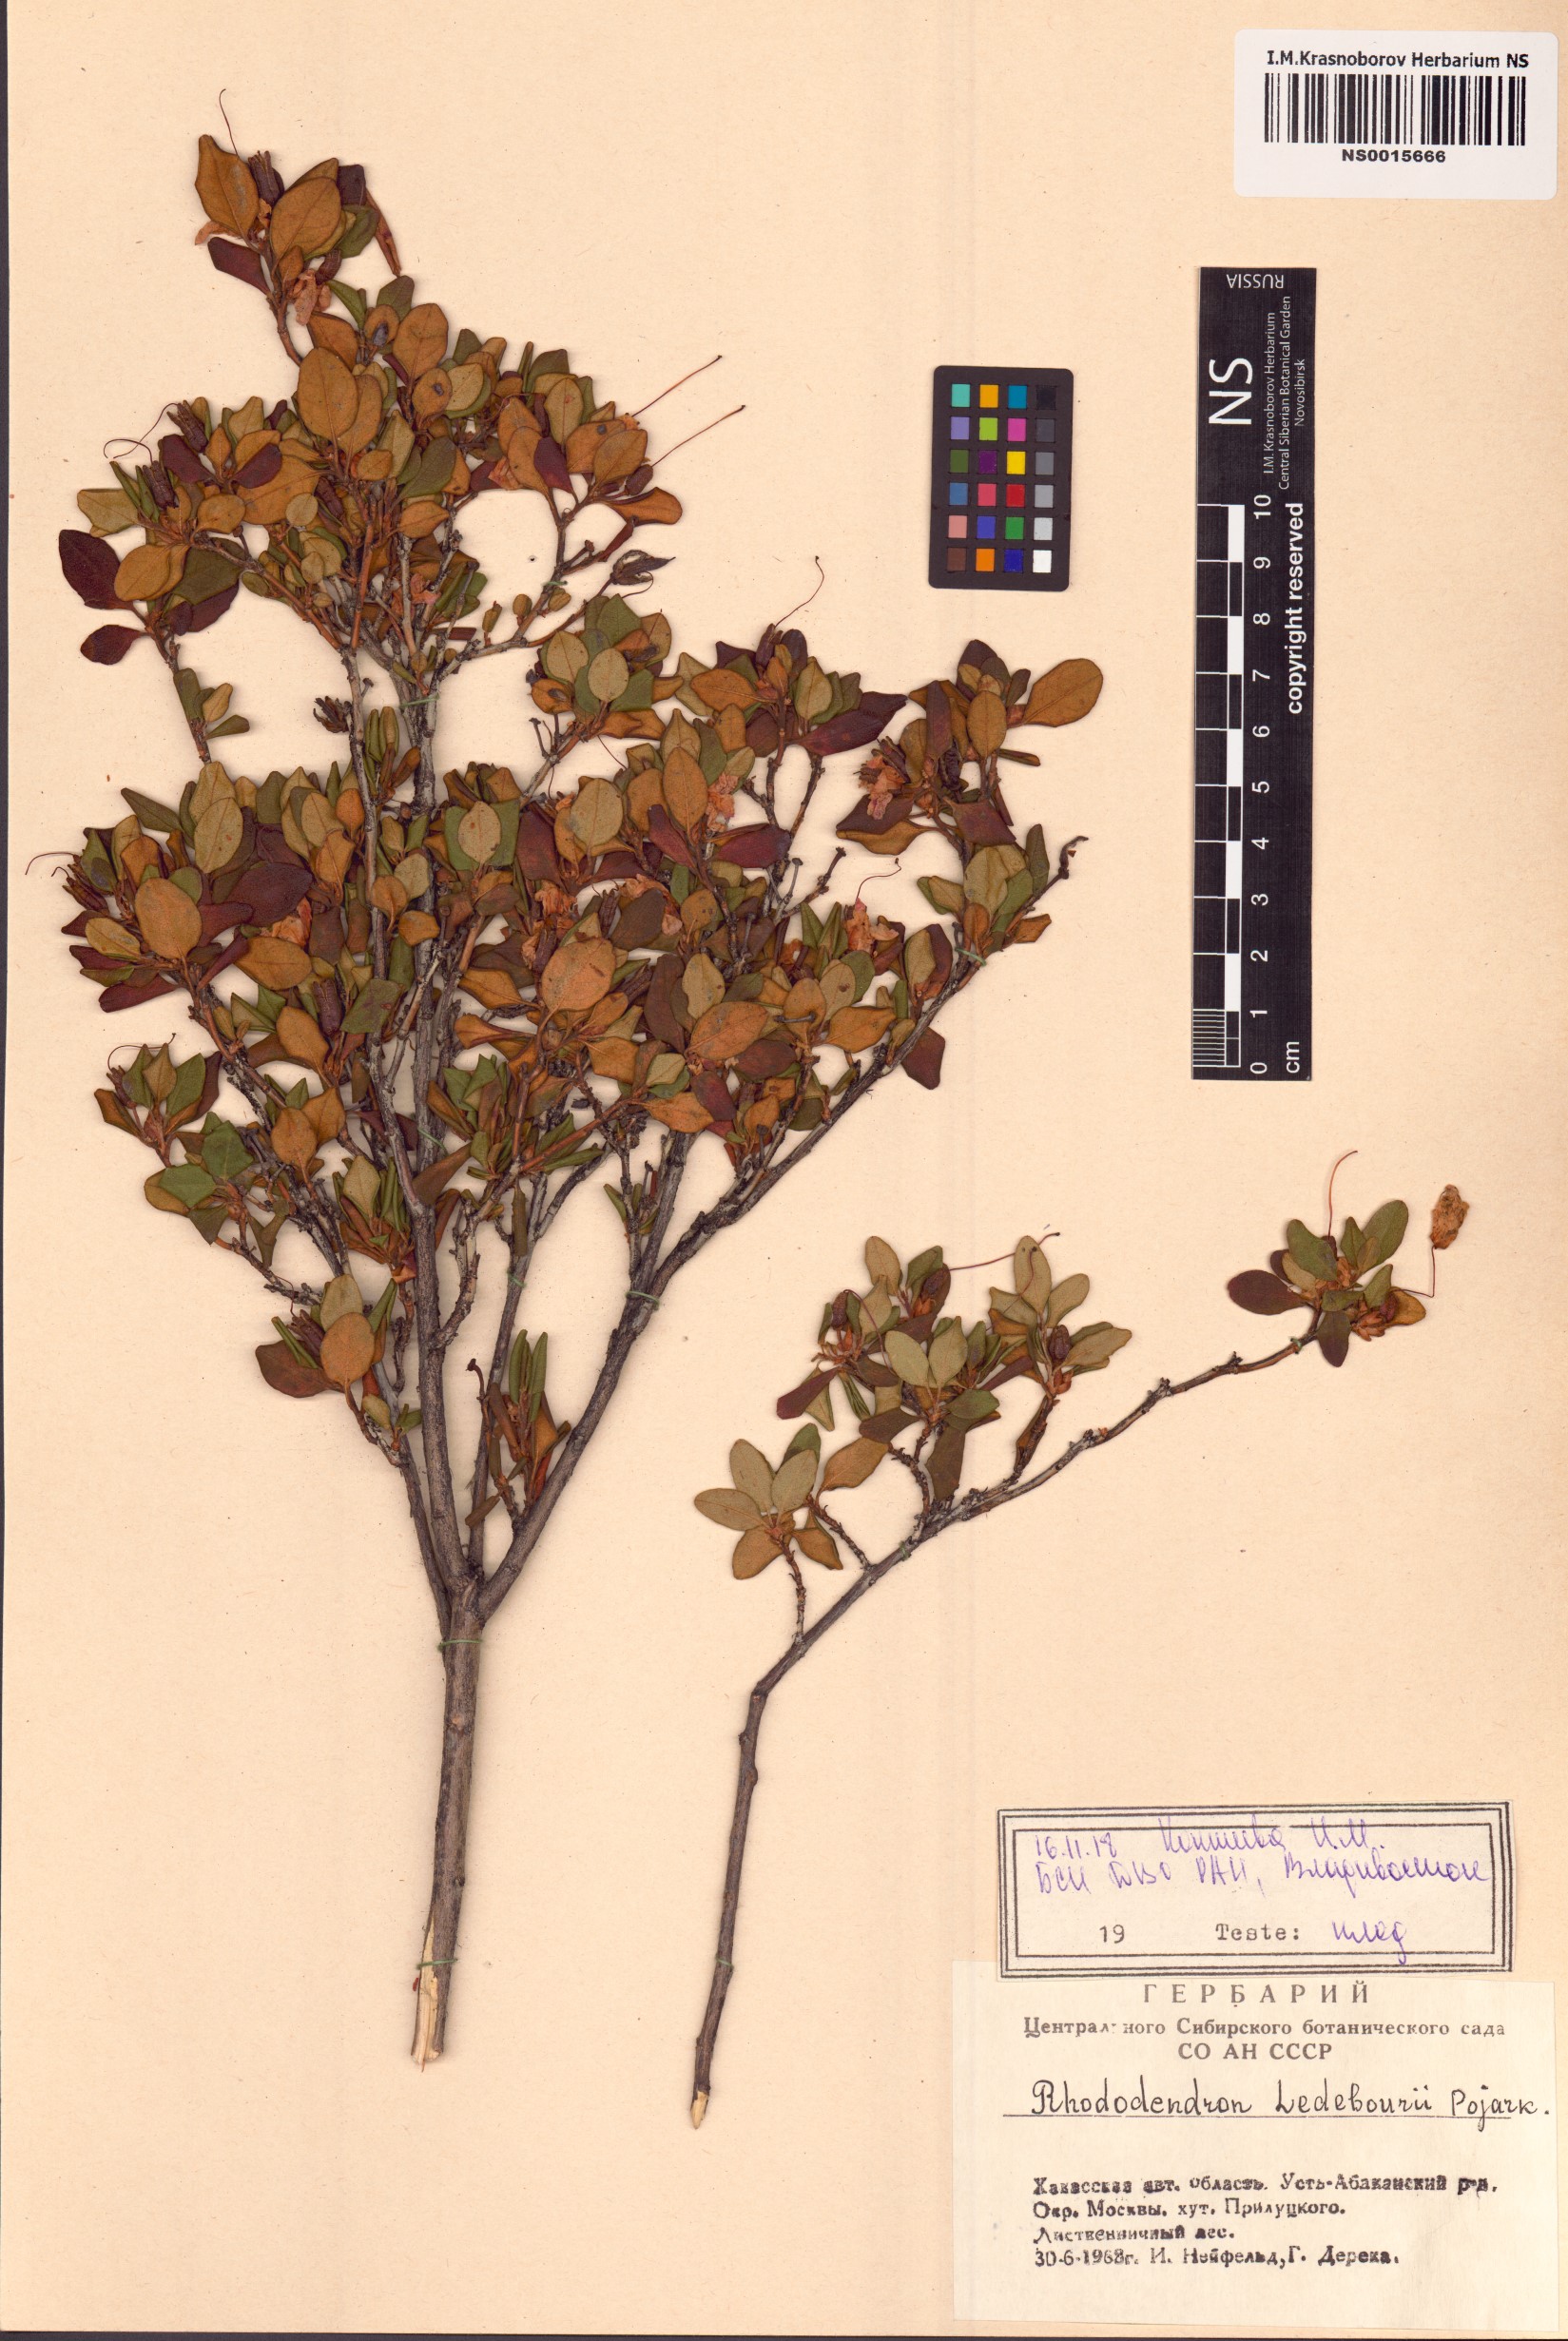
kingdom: Plantae
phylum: Tracheophyta
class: Magnoliopsida
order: Ericales
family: Ericaceae
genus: Rhododendron
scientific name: Rhododendron dauricum
